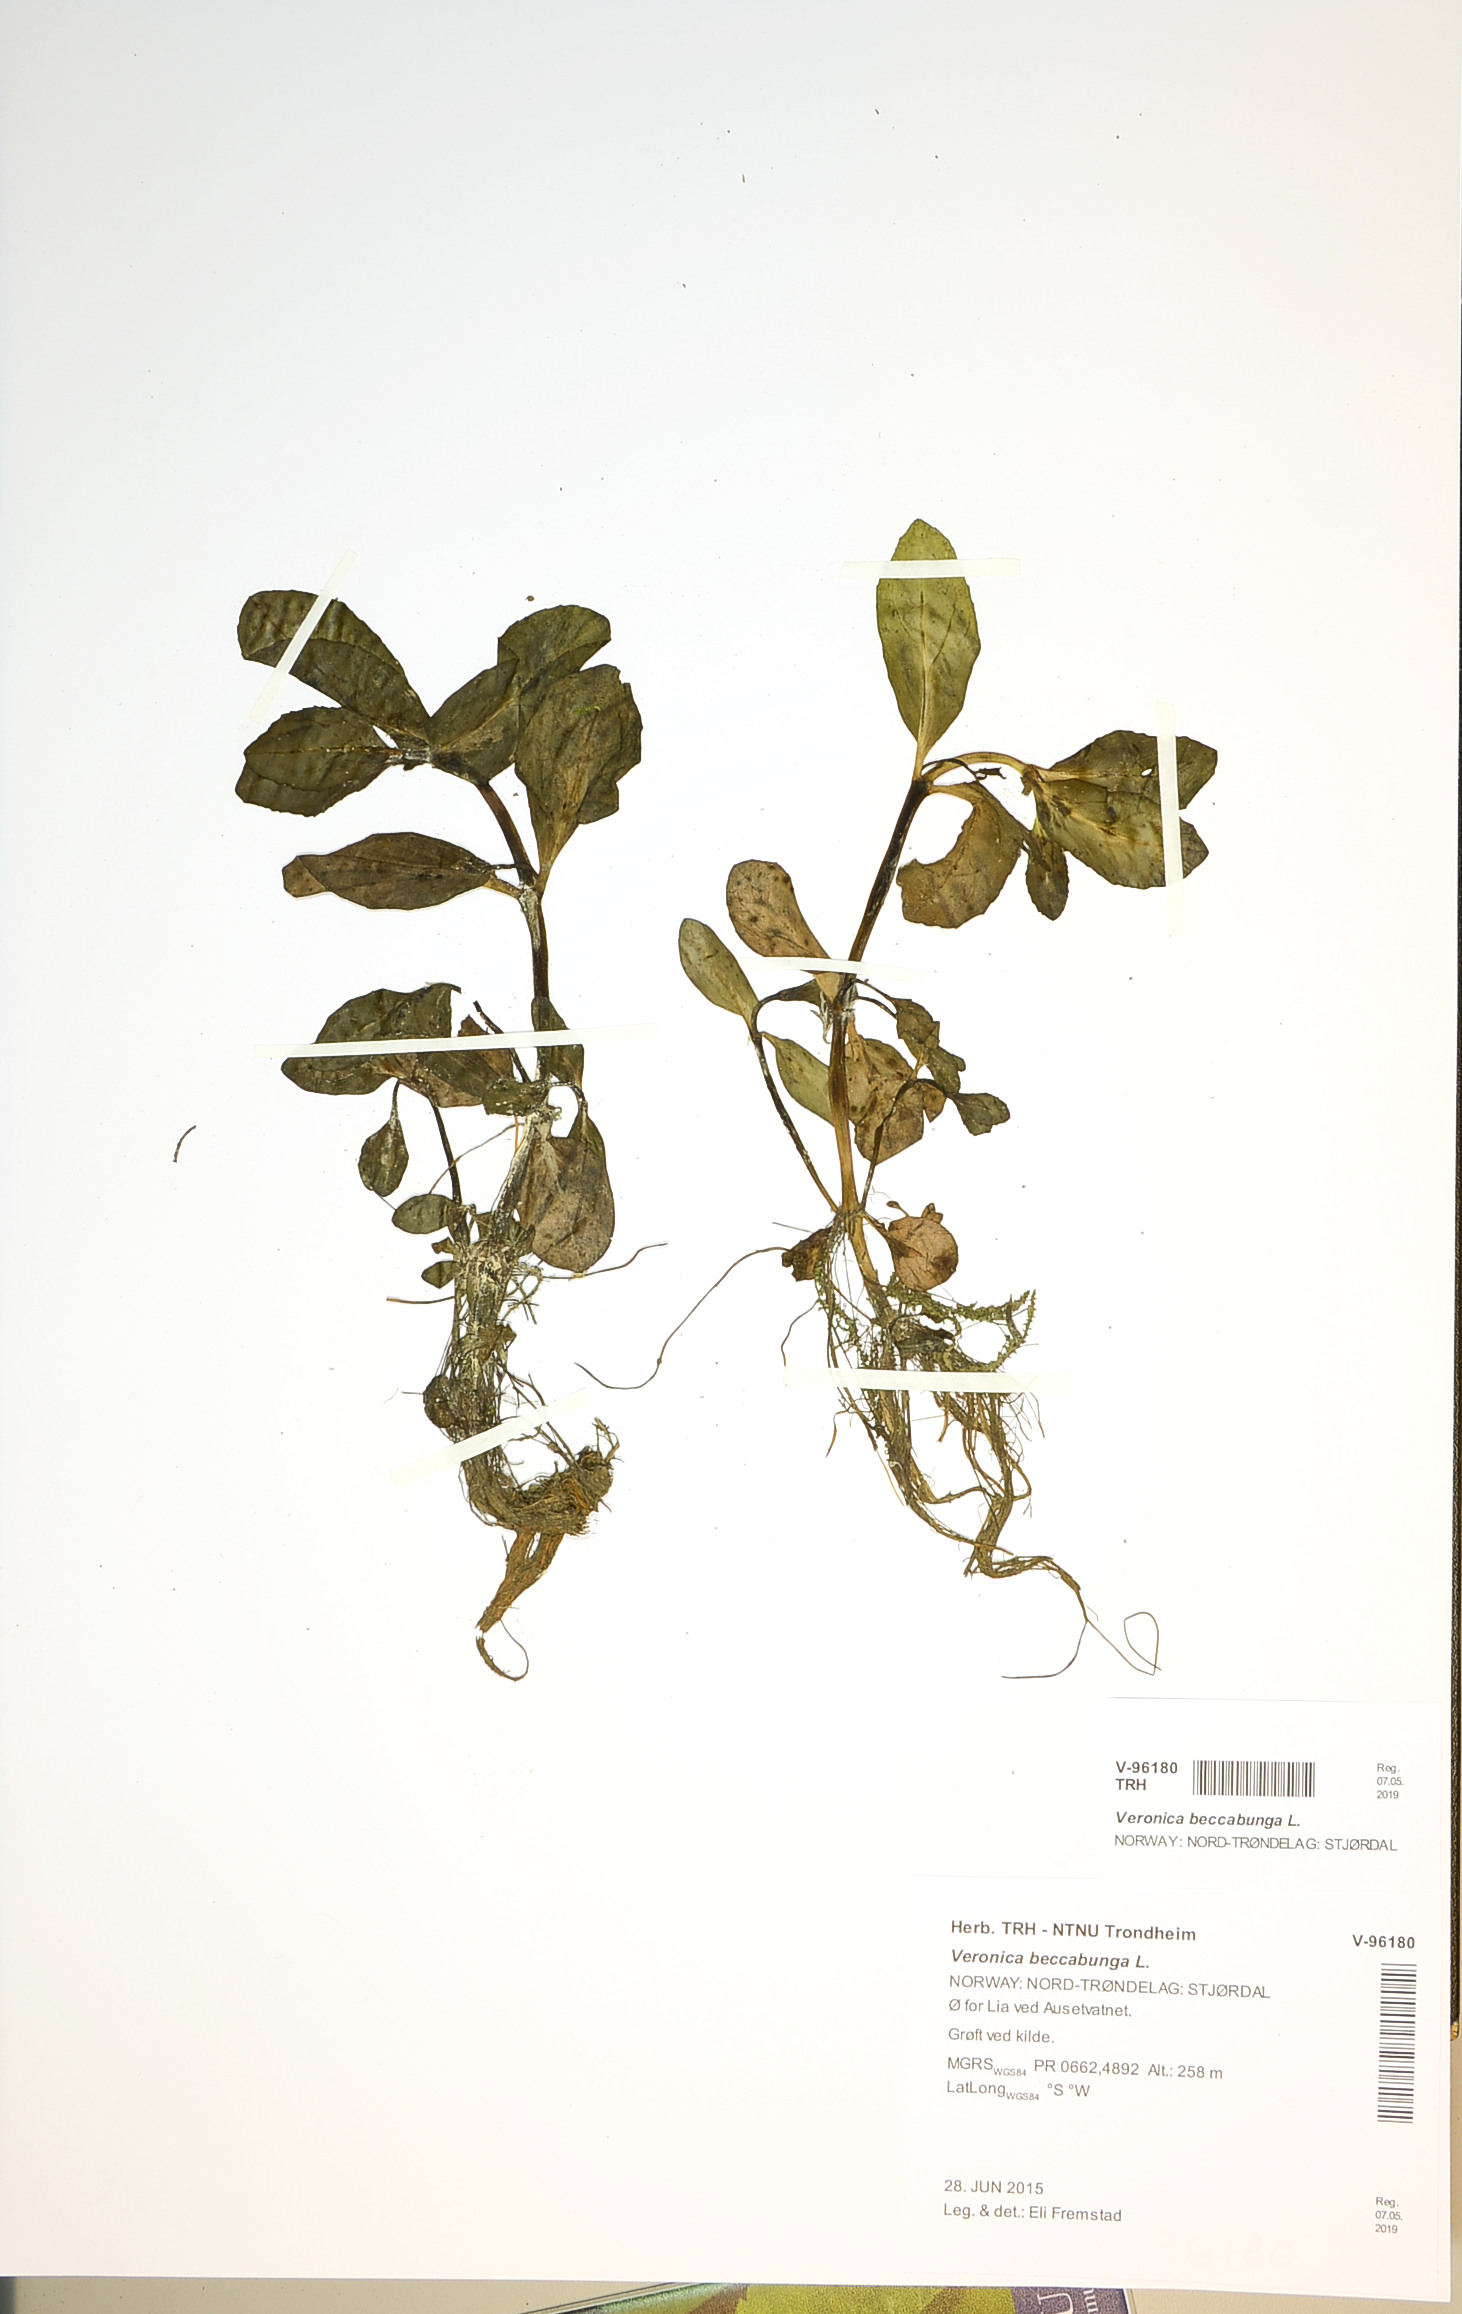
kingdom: Plantae
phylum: Tracheophyta
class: Magnoliopsida
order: Lamiales
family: Plantaginaceae
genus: Veronica
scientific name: Veronica beccabunga
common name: Brooklime
